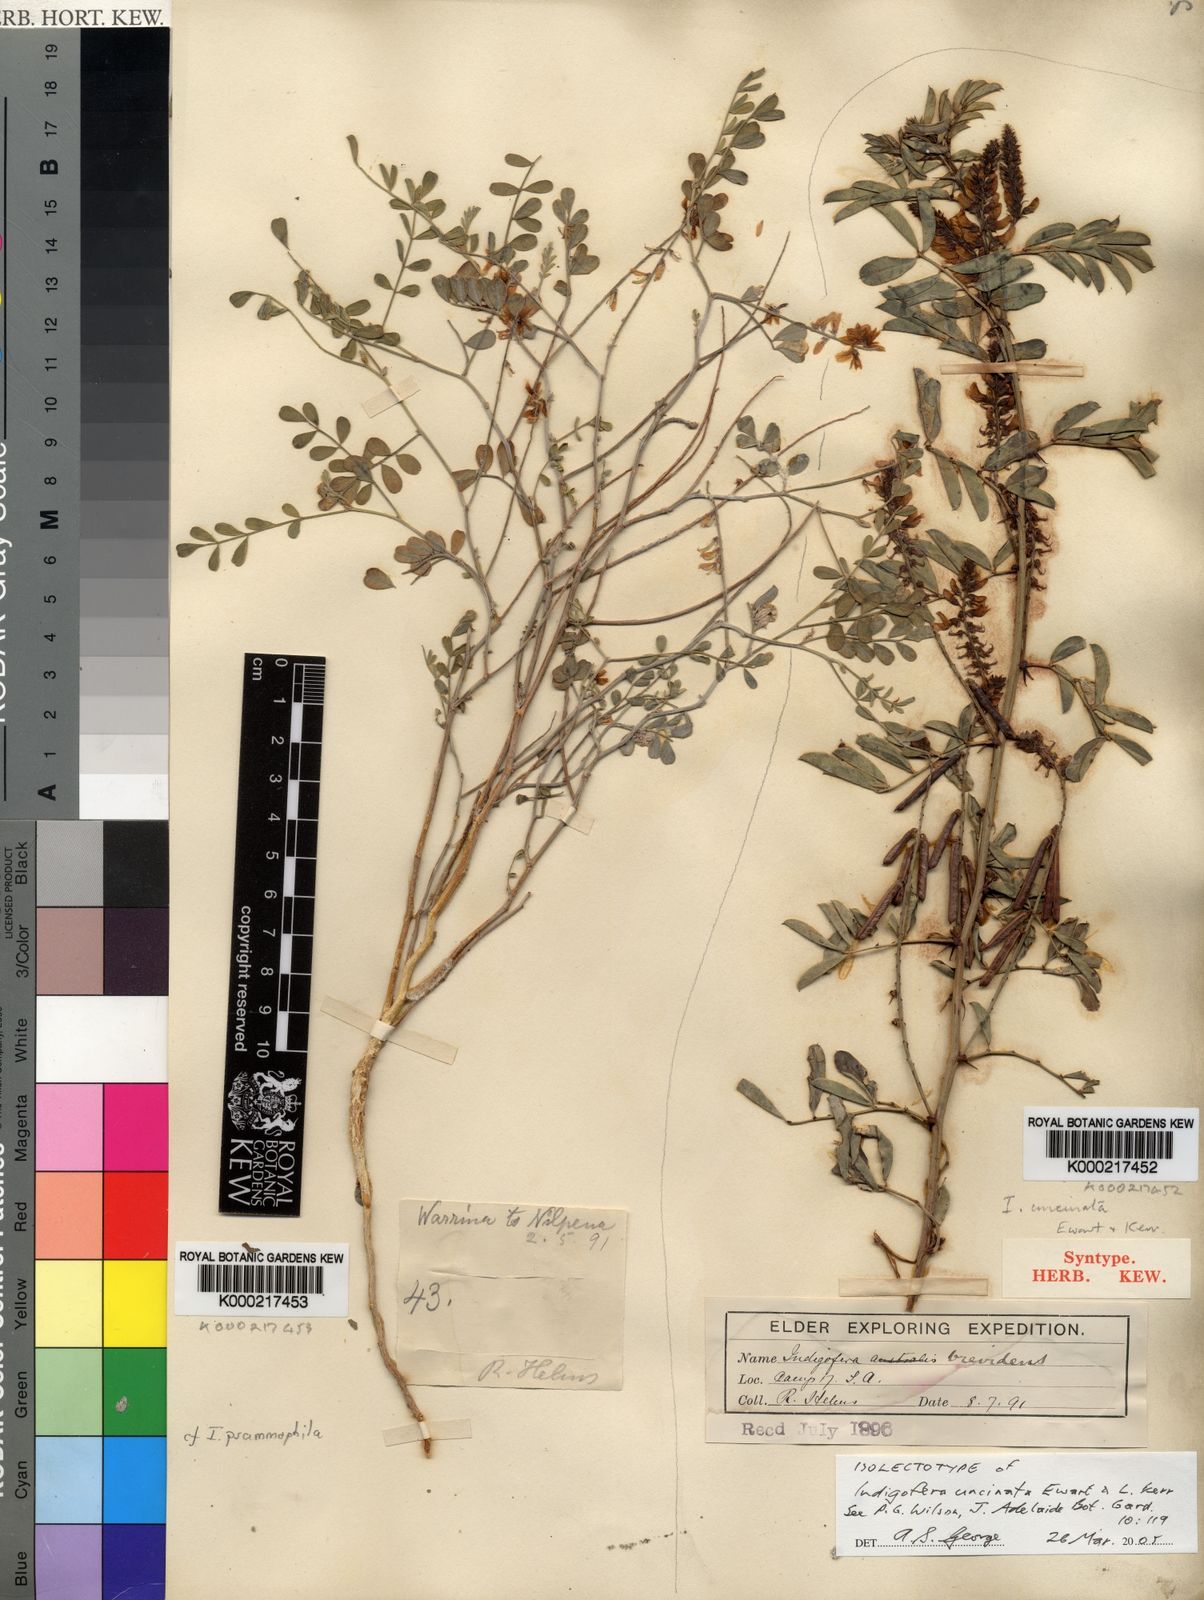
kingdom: Plantae
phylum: Tracheophyta
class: Magnoliopsida
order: Fabales
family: Fabaceae
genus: Indigofera
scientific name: Indigofera helmsii
